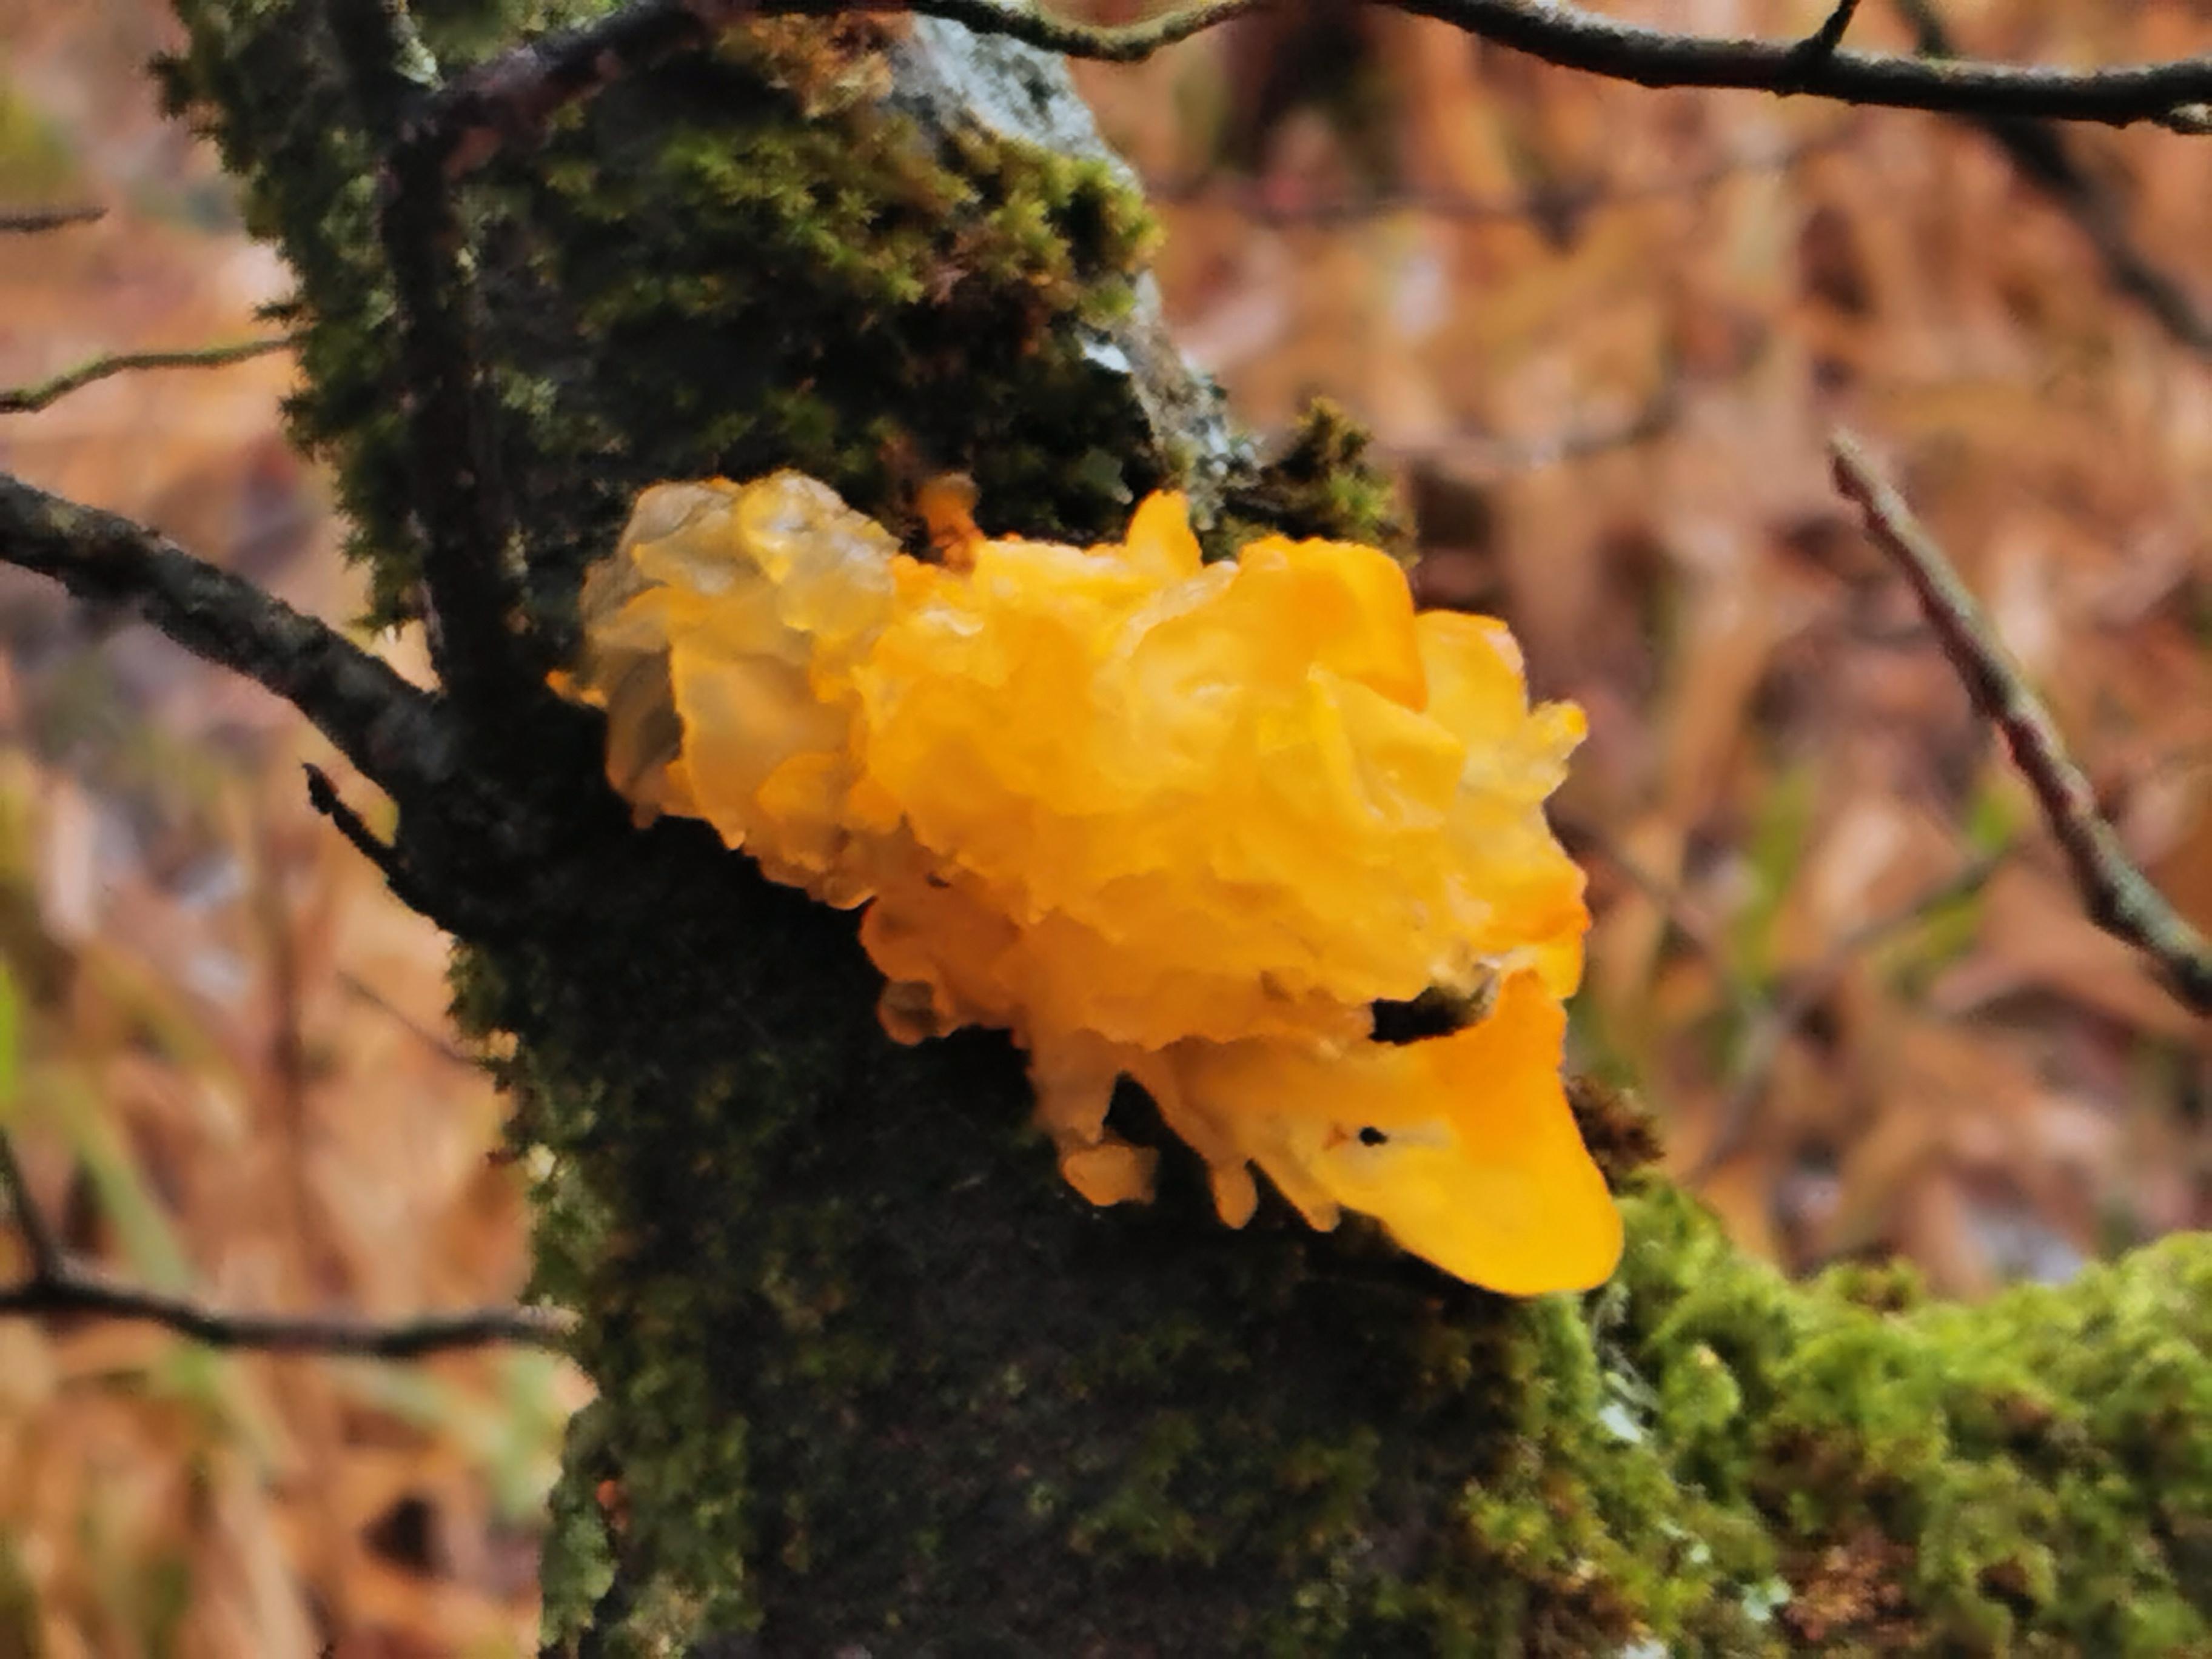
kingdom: Fungi
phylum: Basidiomycota
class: Tremellomycetes
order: Tremellales
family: Tremellaceae
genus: Tremella
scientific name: Tremella mesenterica
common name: gul bævresvamp
